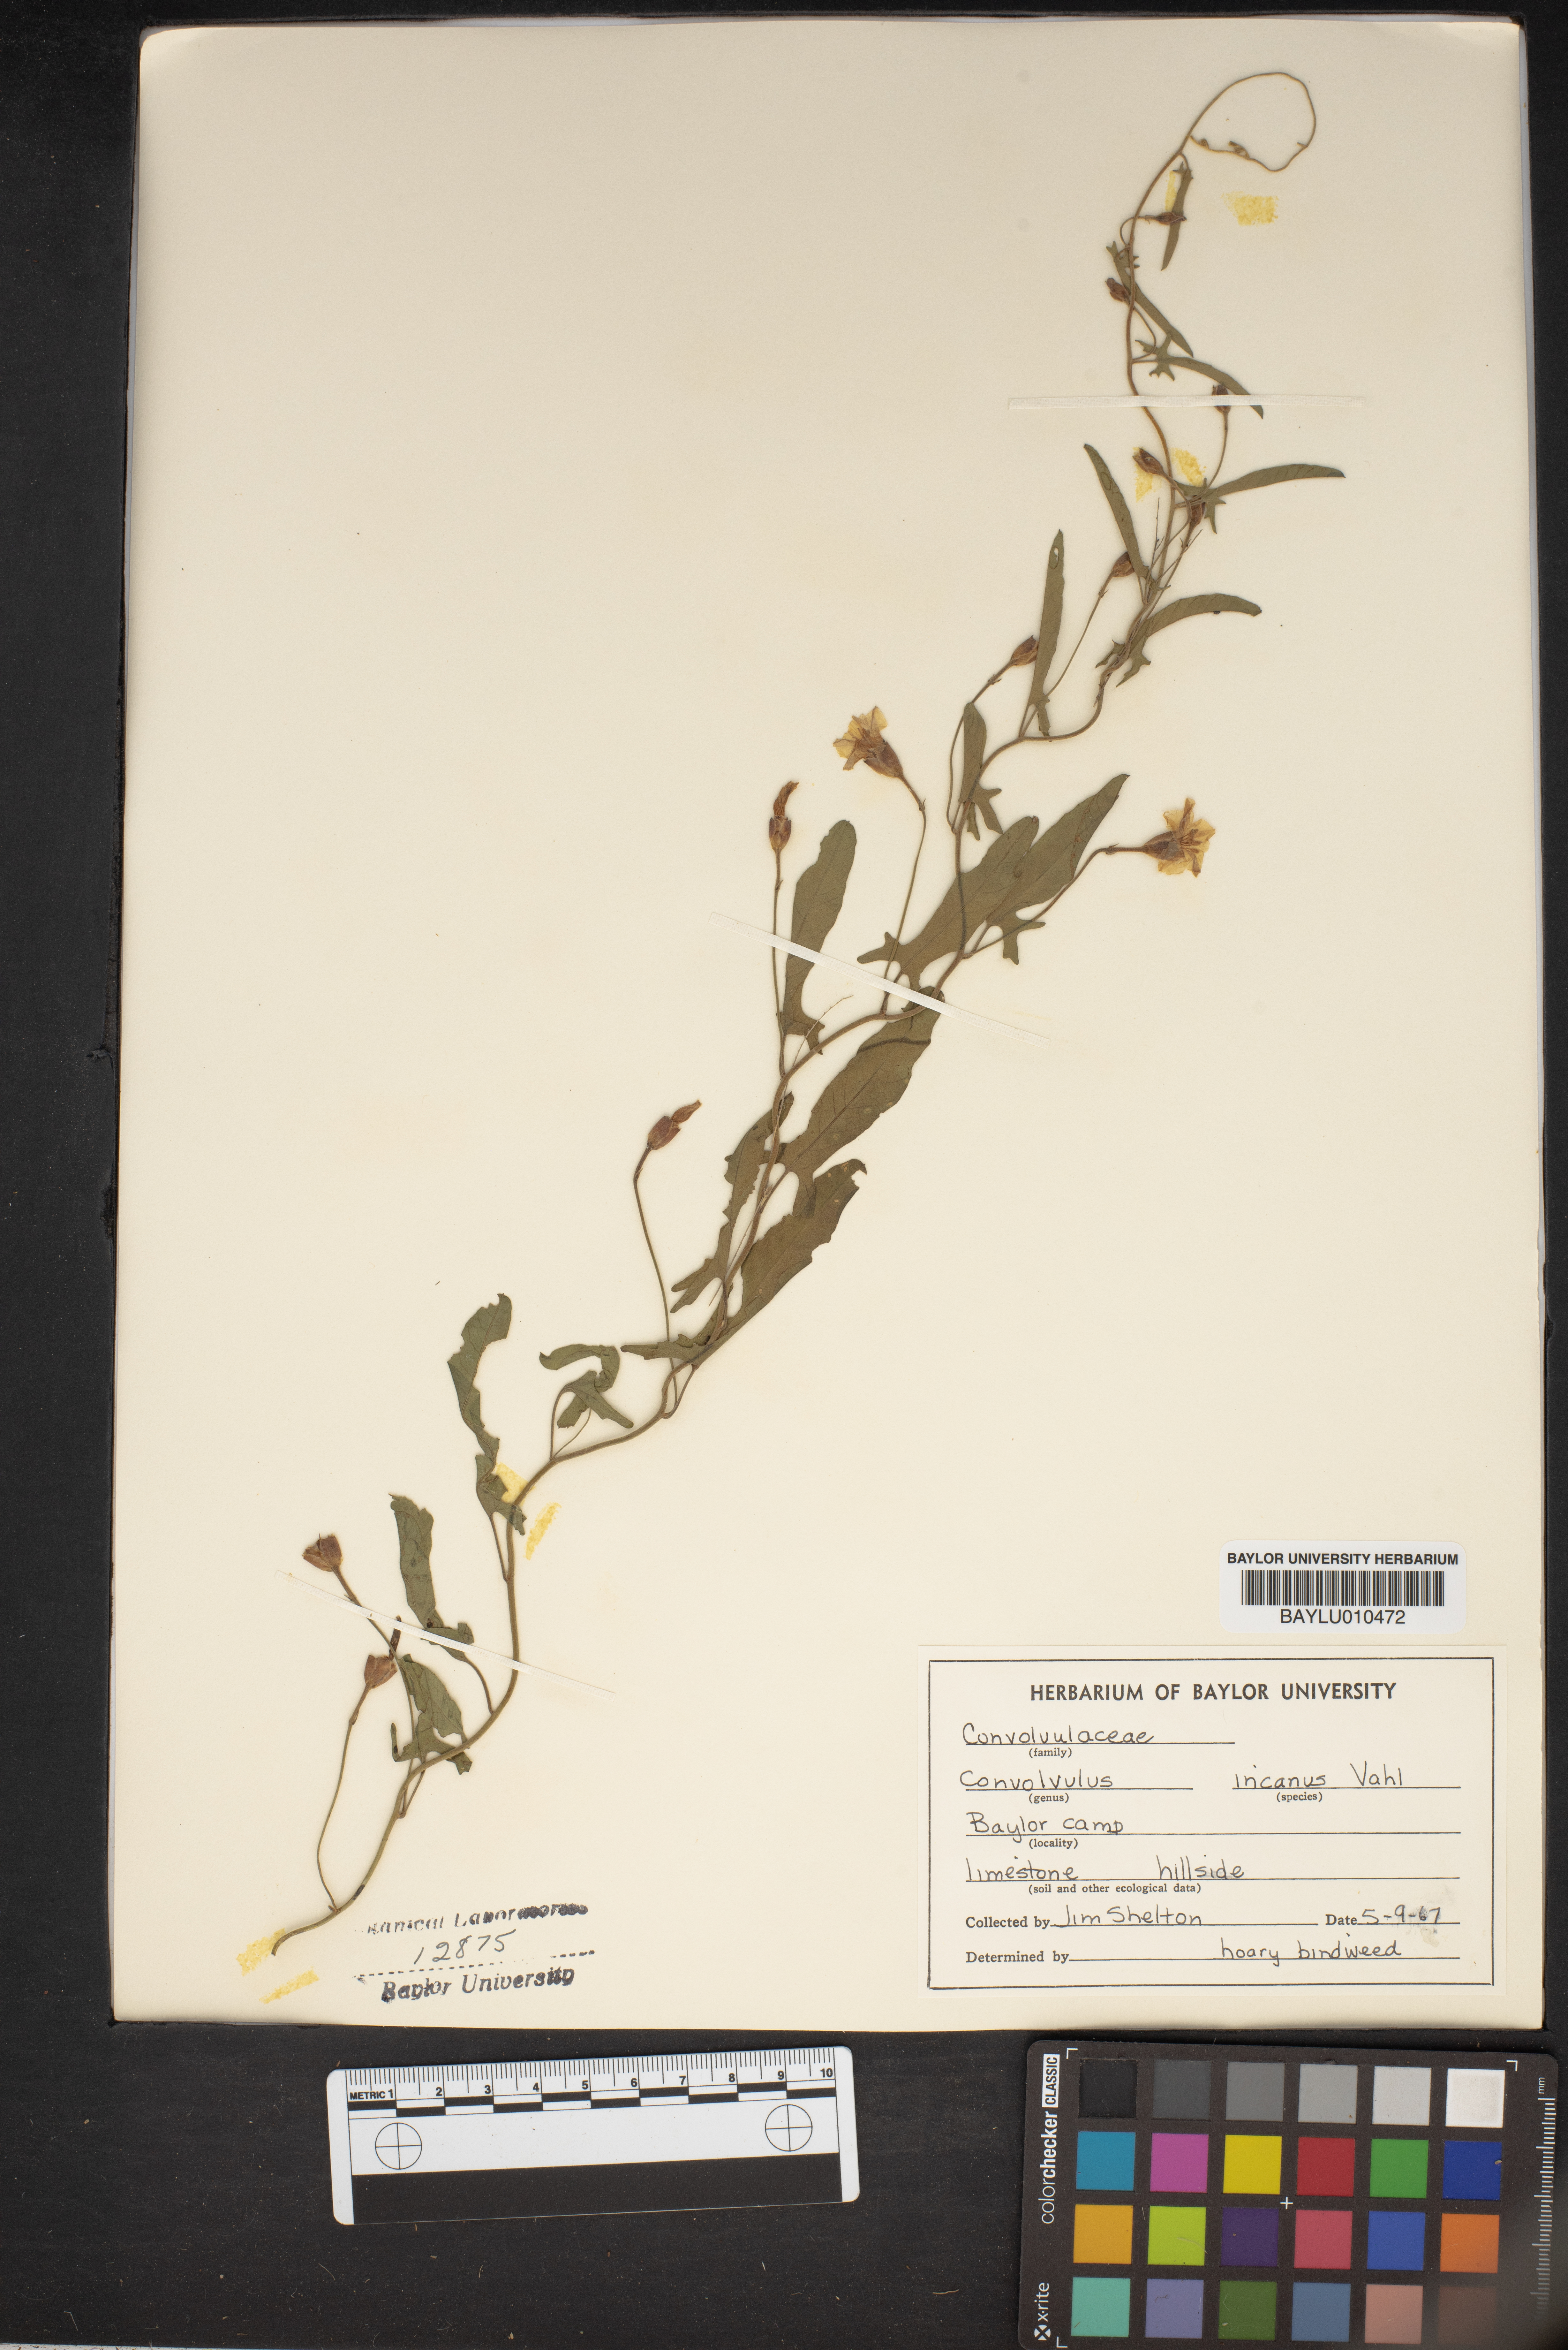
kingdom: Plantae
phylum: Tracheophyta
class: Magnoliopsida
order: Solanales
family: Convolvulaceae
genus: Convolvulus
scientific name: Convolvulus hermanniae
